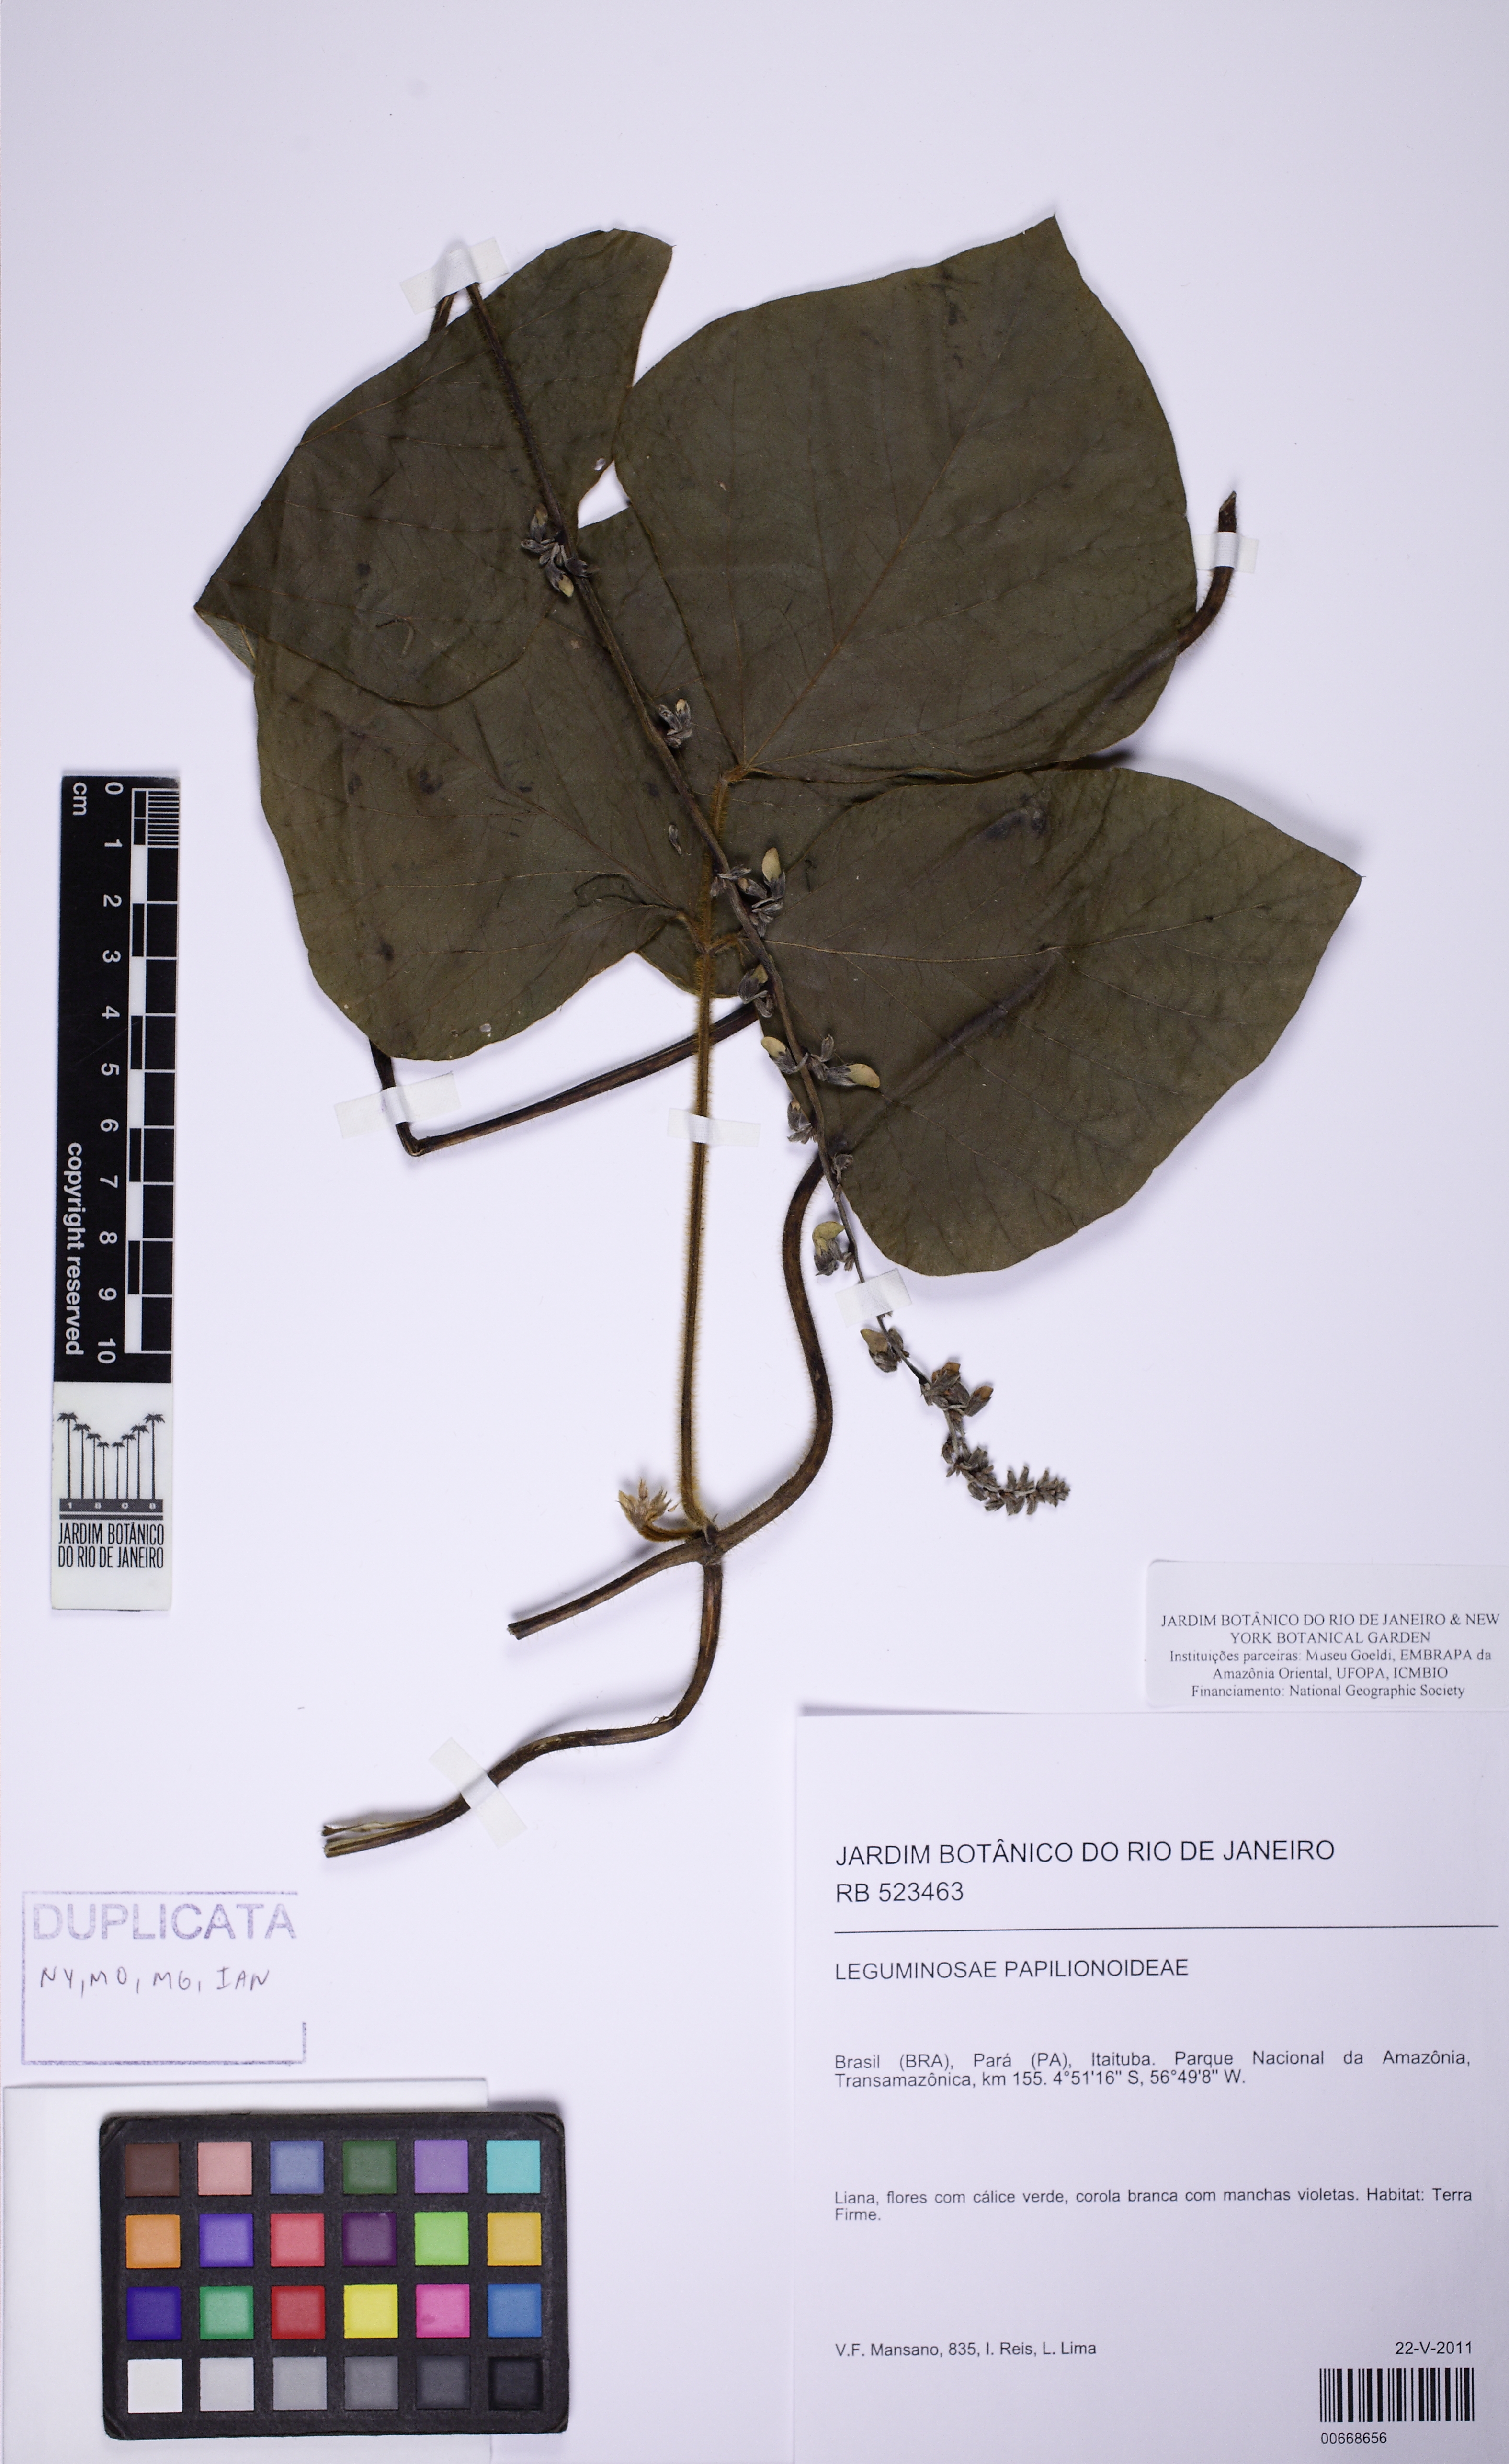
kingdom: Plantae
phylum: Tracheophyta
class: Magnoliopsida
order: Fabales
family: Fabaceae
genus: Vigna
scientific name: Vigna
